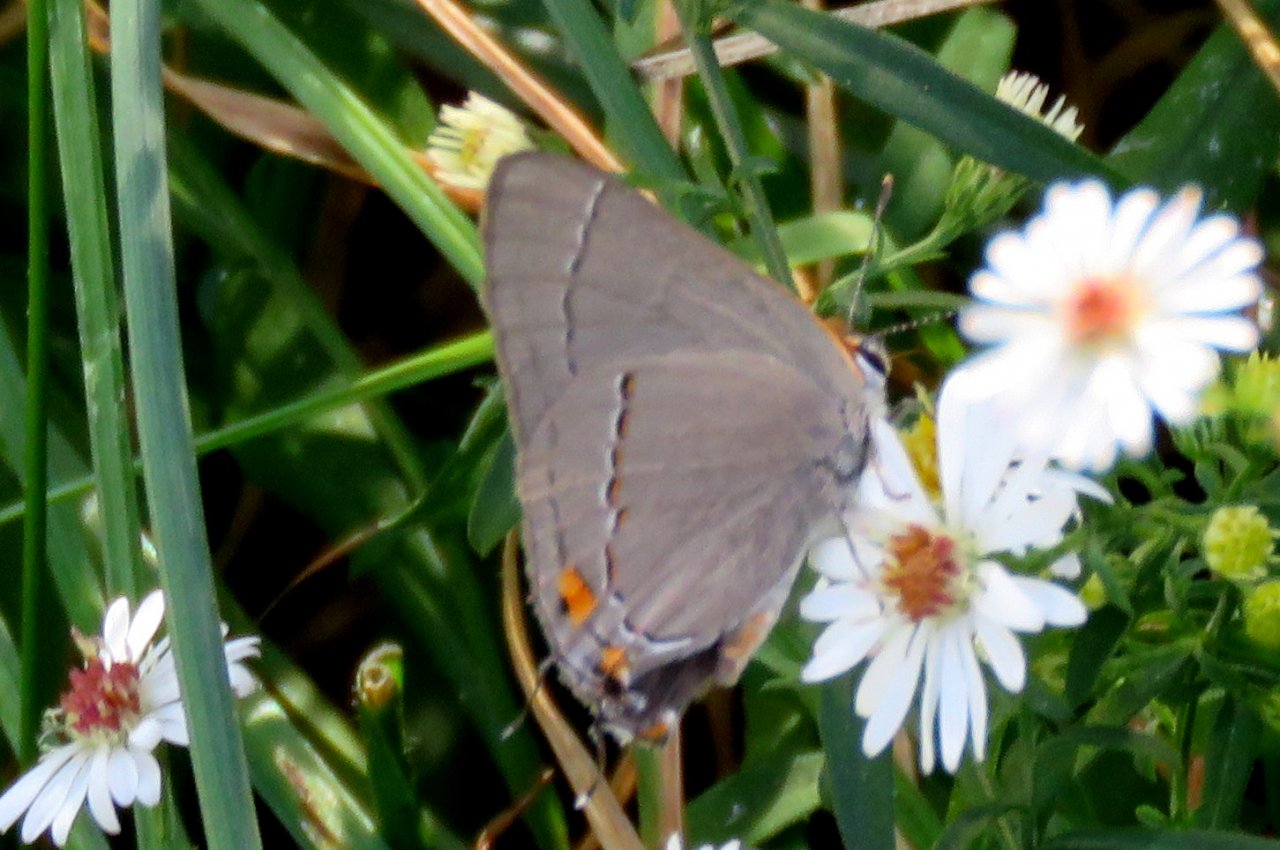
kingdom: Animalia
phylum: Arthropoda
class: Insecta
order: Lepidoptera
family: Lycaenidae
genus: Strymon
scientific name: Strymon melinus
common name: Gray Hairstreak
